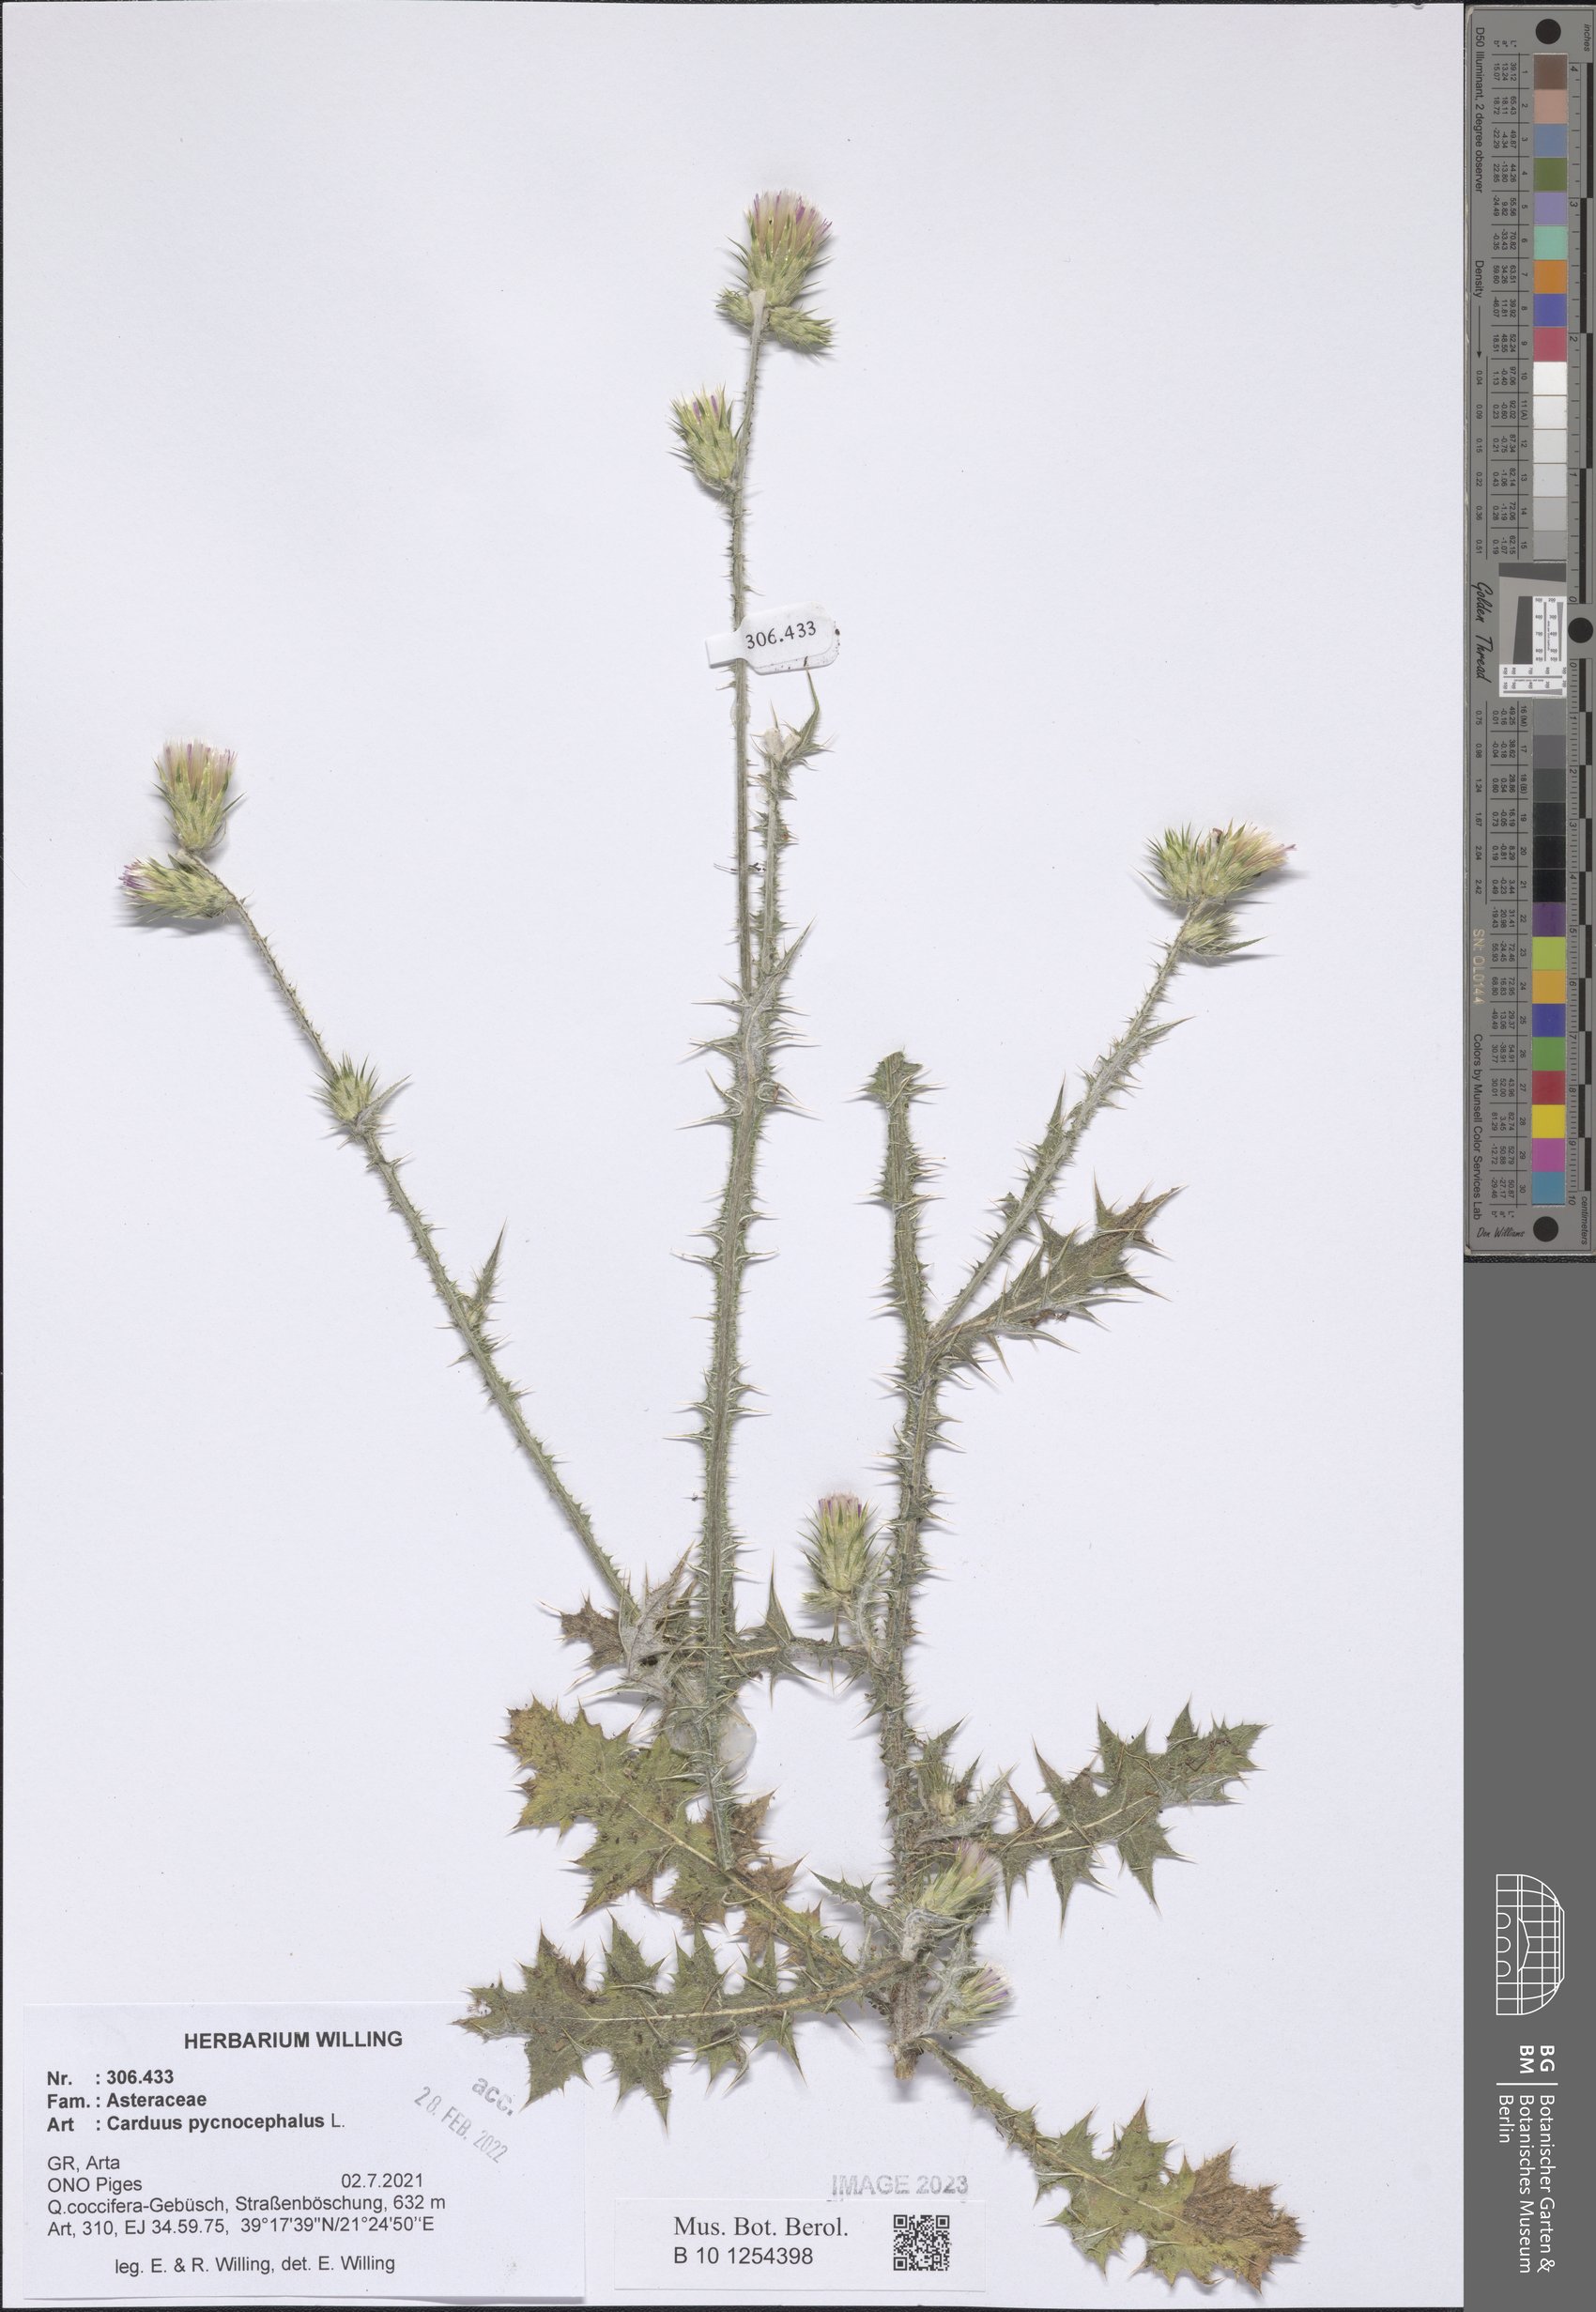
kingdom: Plantae
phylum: Tracheophyta
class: Magnoliopsida
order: Asterales
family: Asteraceae
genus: Carduus
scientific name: Carduus pycnocephalus
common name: Plymouth thistle
